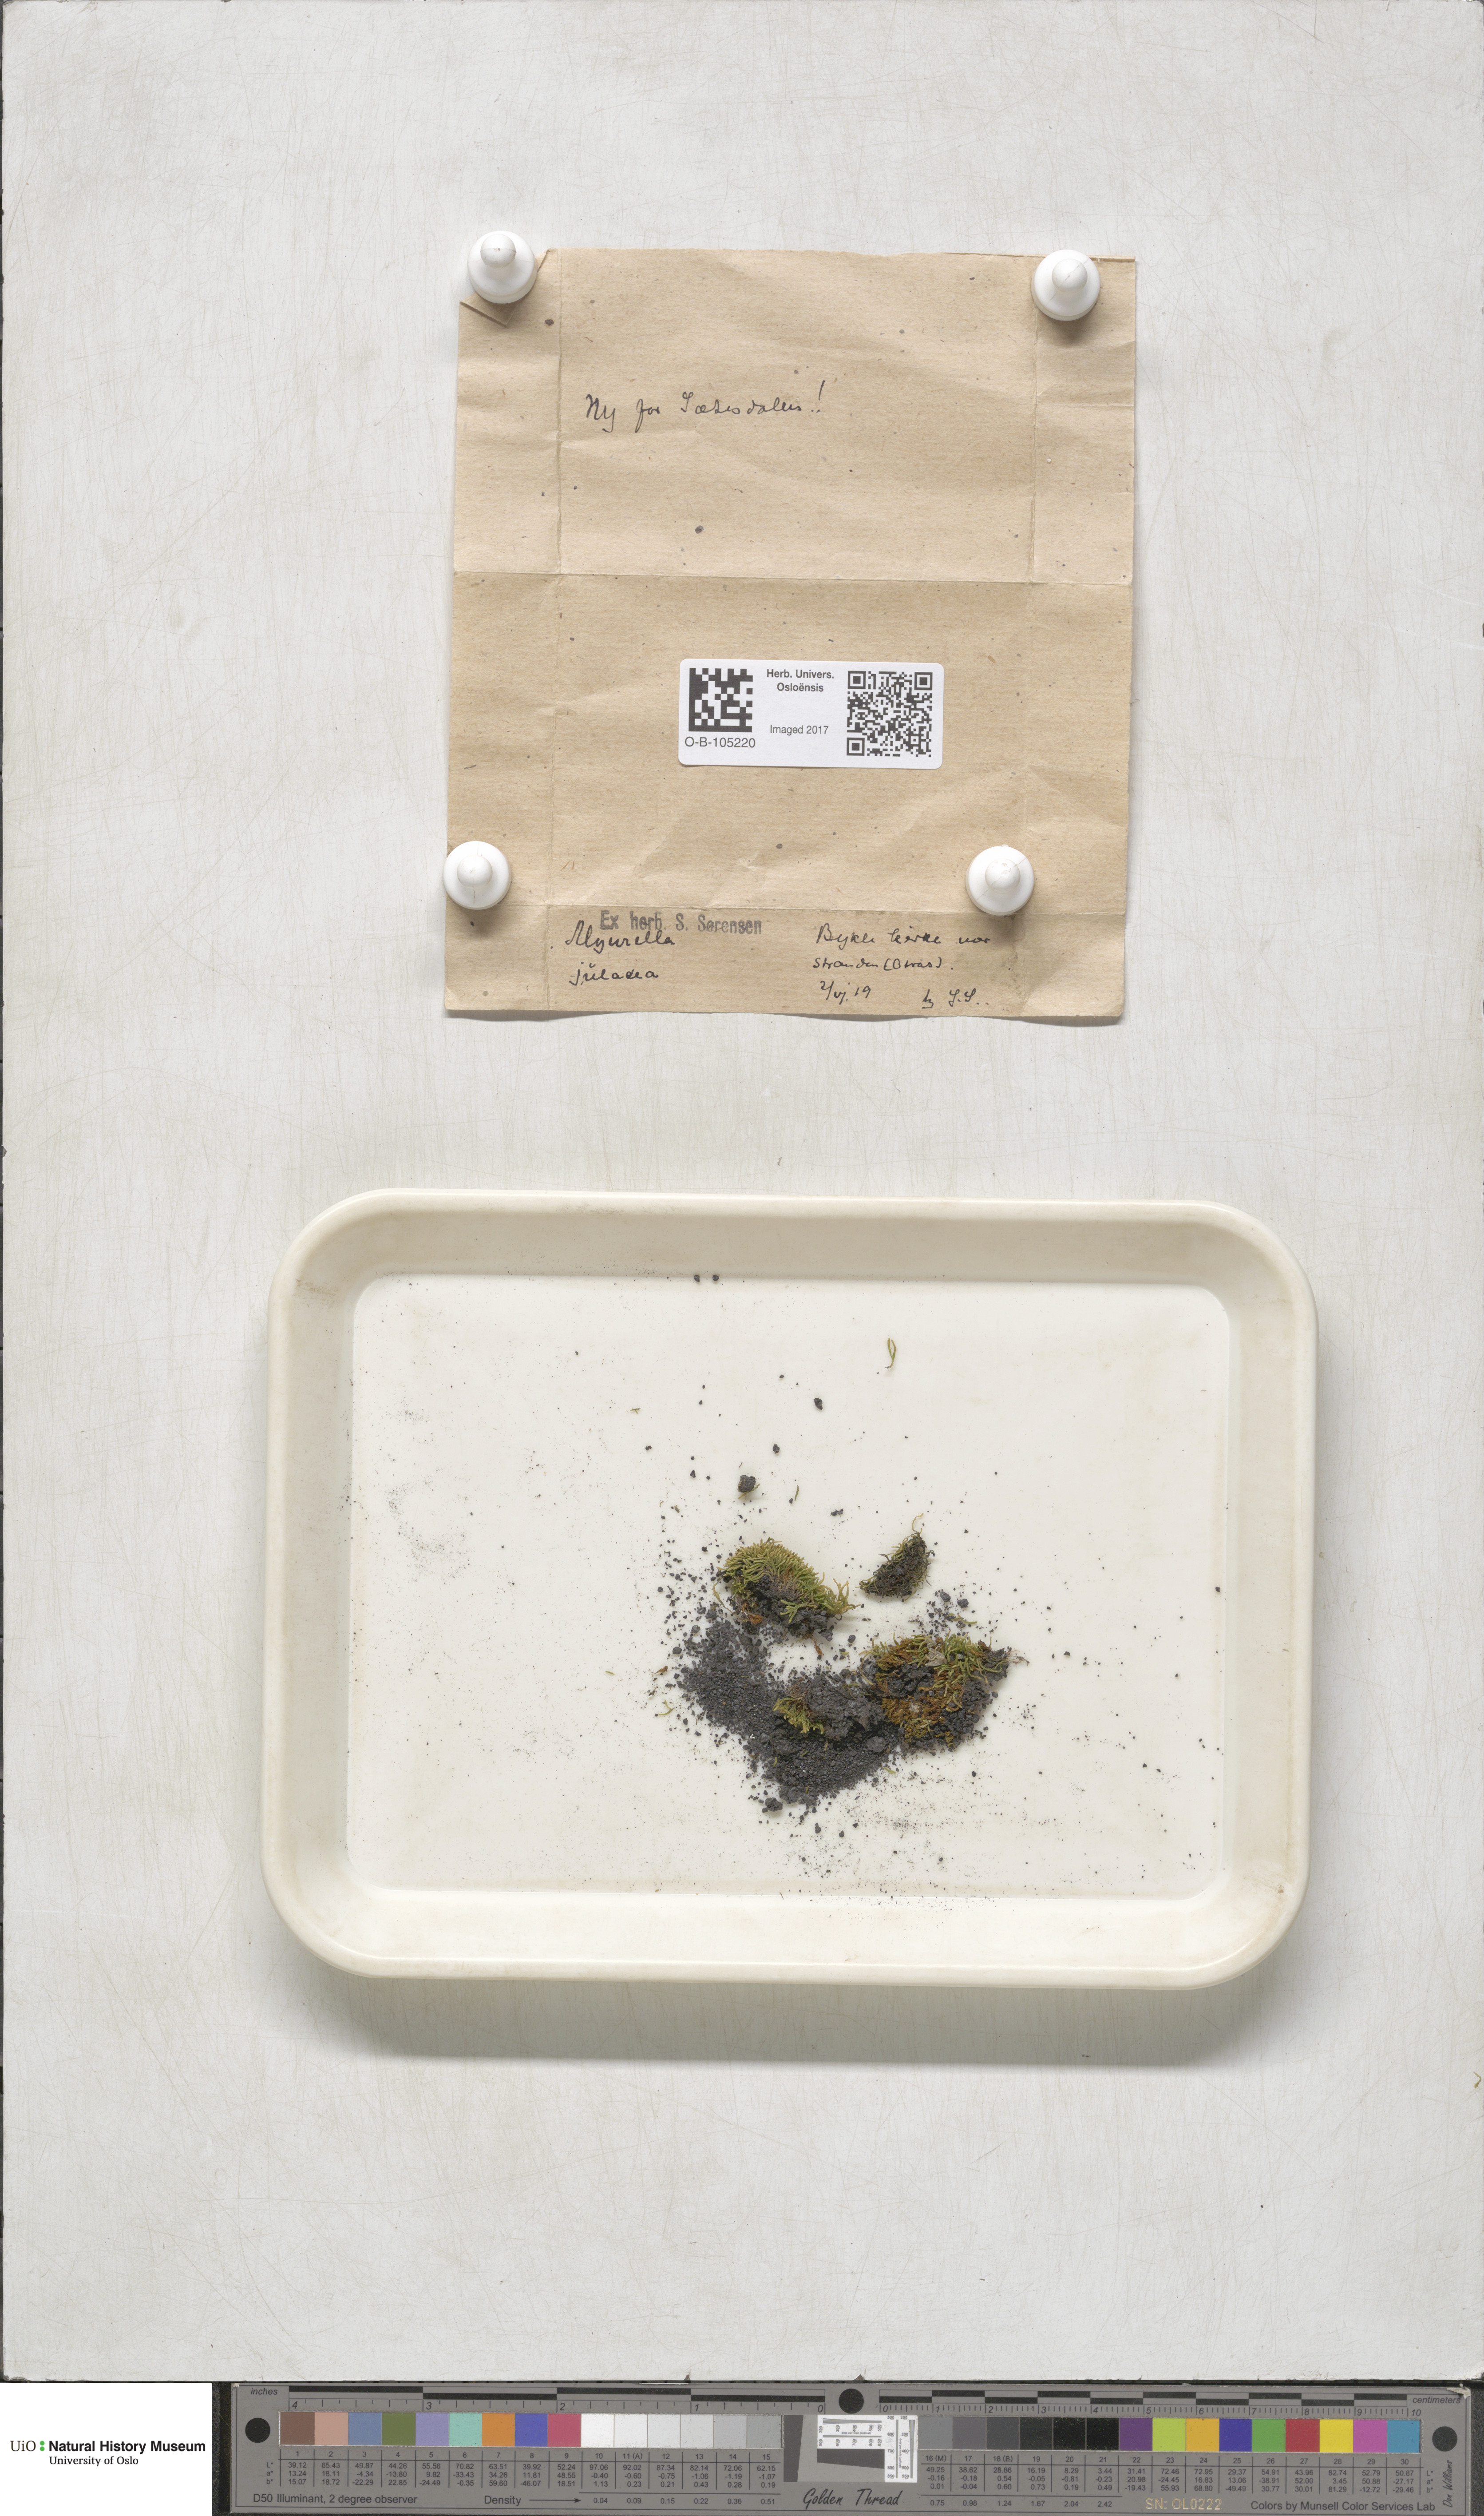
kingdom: Plantae
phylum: Bryophyta
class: Bryopsida
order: Hypnales
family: Plagiotheciaceae
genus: Myurella
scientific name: Myurella julacea
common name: Small mousetail moss
